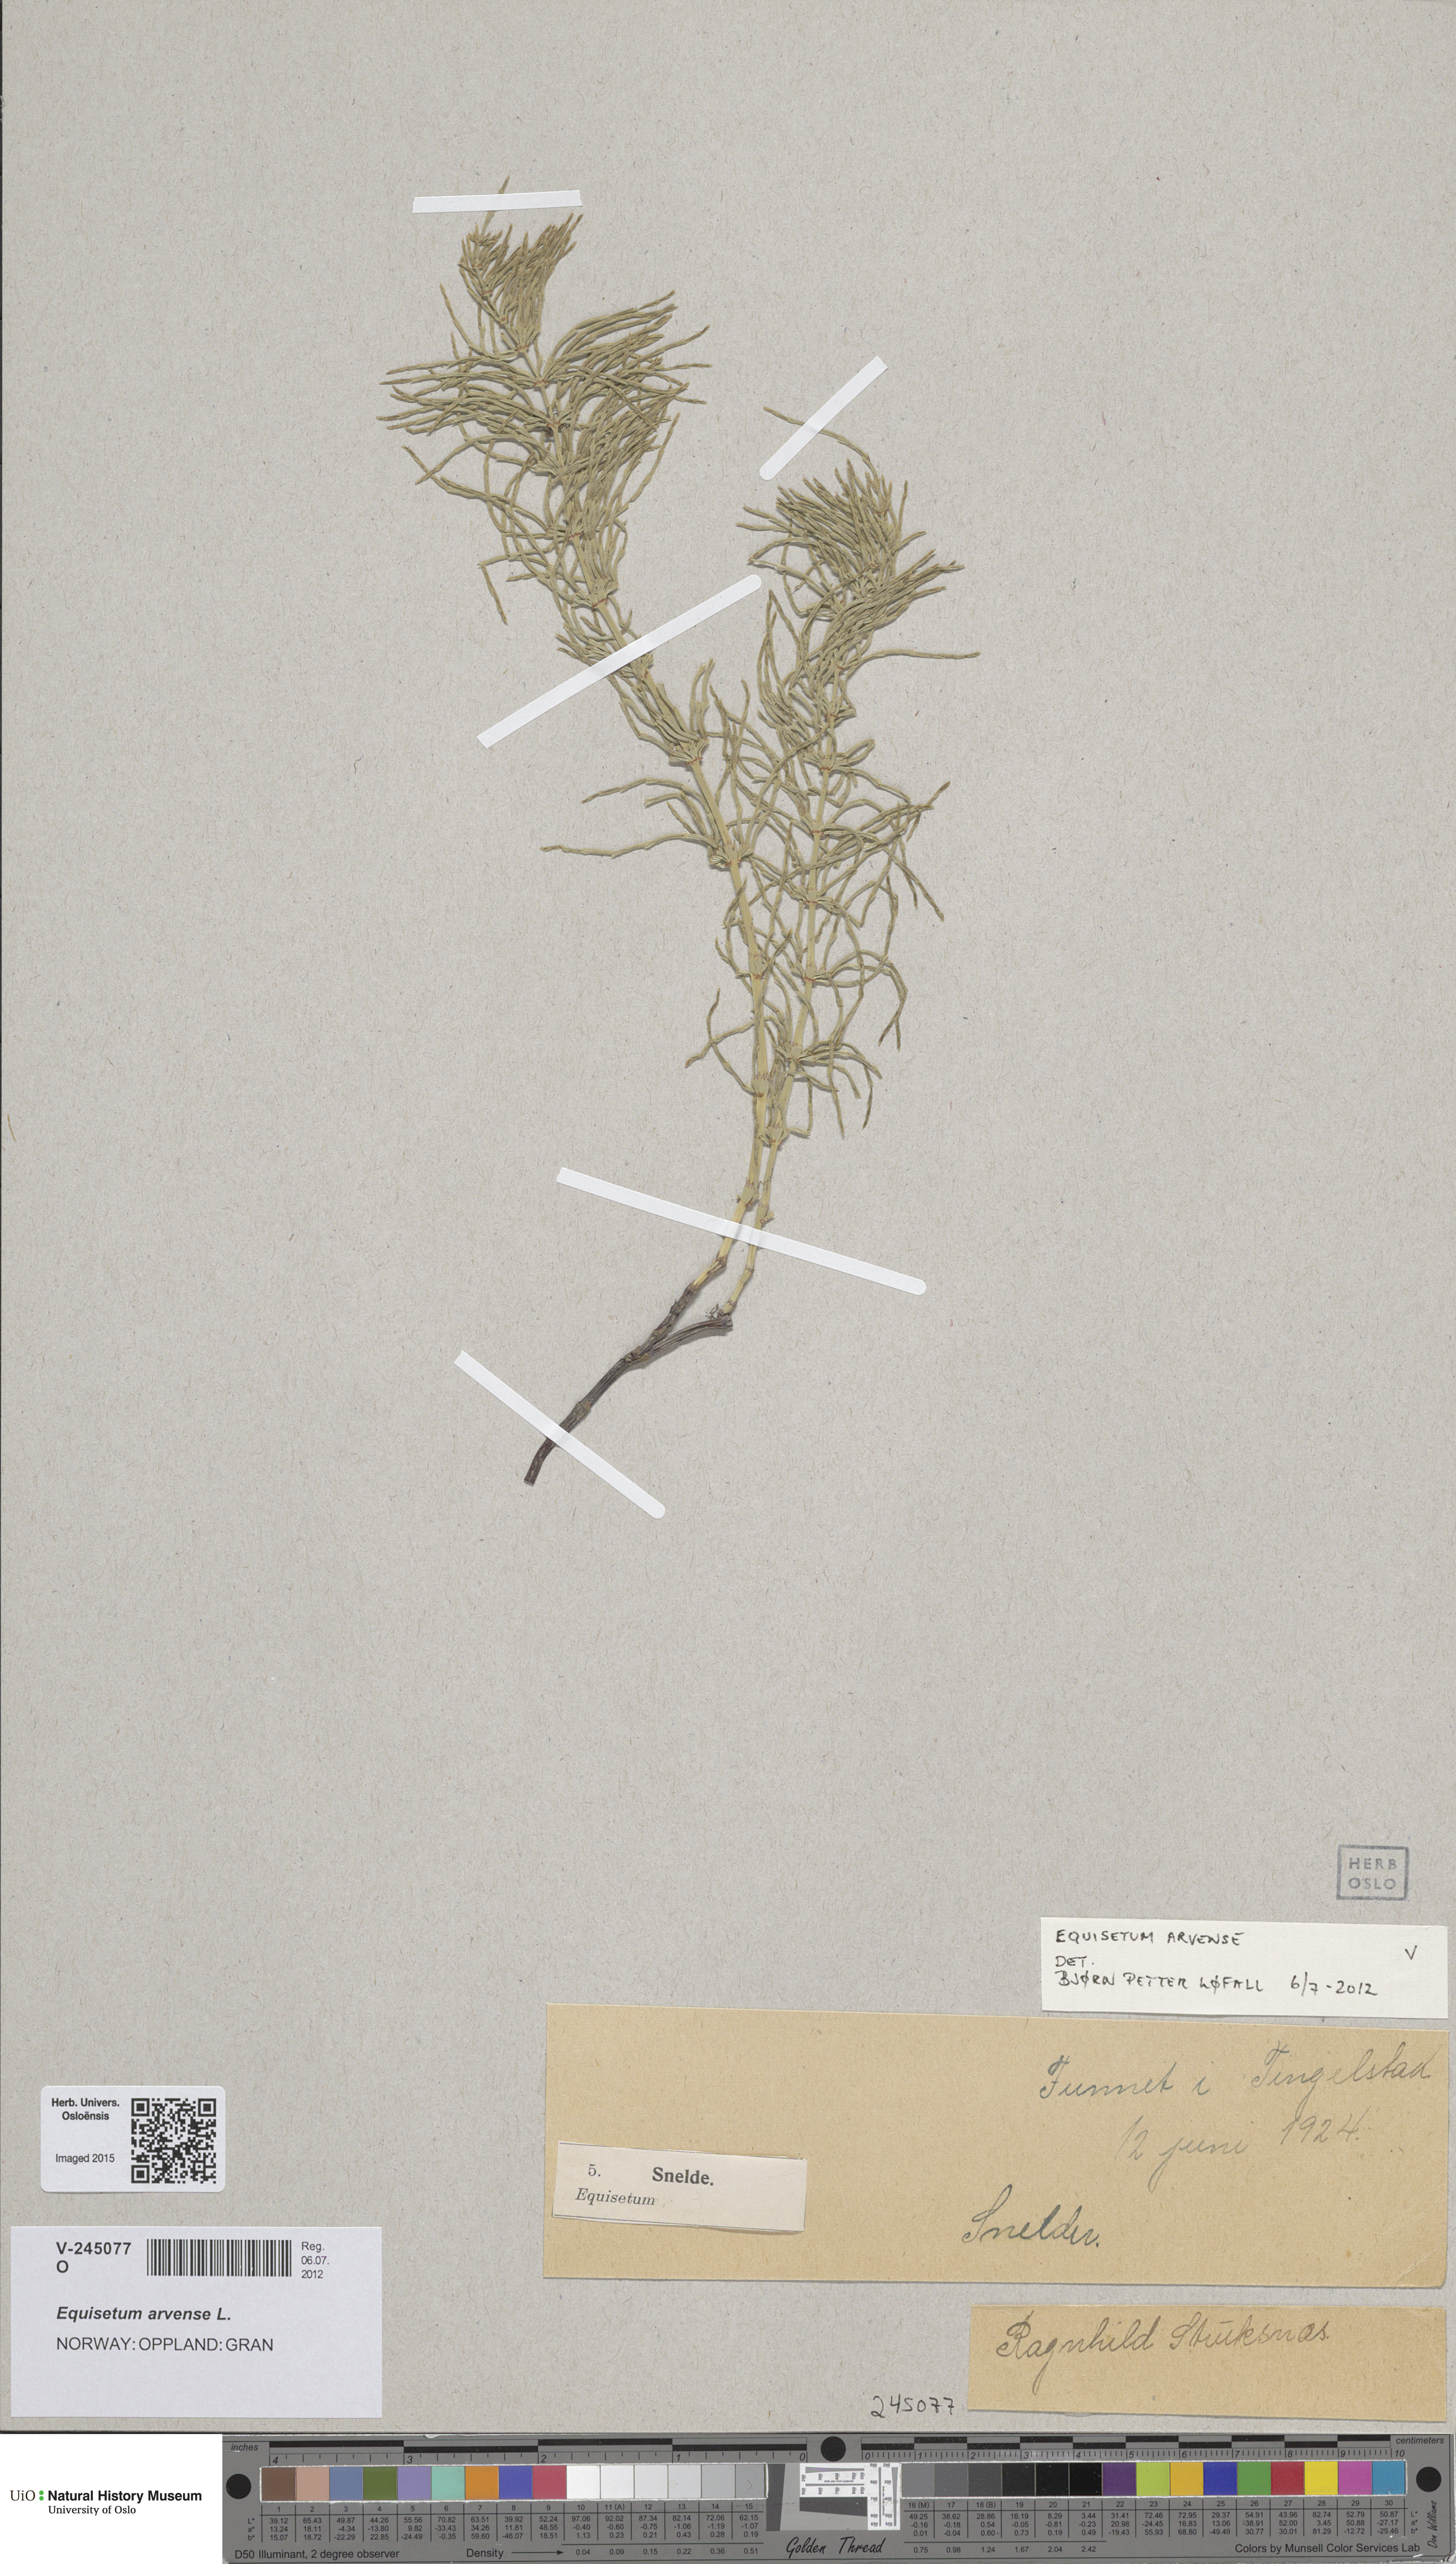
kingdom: Plantae
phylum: Tracheophyta
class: Polypodiopsida
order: Equisetales
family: Equisetaceae
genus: Equisetum
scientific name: Equisetum pratense
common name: Meadow horsetail
